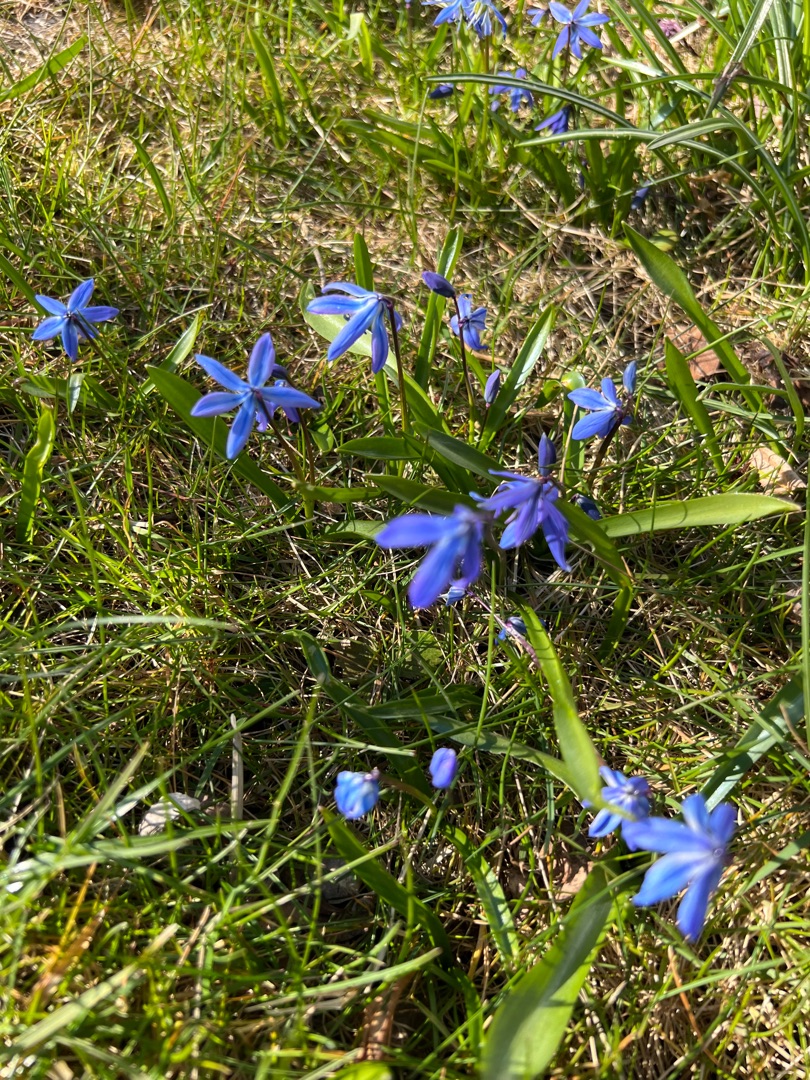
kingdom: Plantae
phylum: Tracheophyta
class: Liliopsida
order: Asparagales
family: Asparagaceae
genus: Scilla
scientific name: Scilla siberica
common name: Russisk skilla
